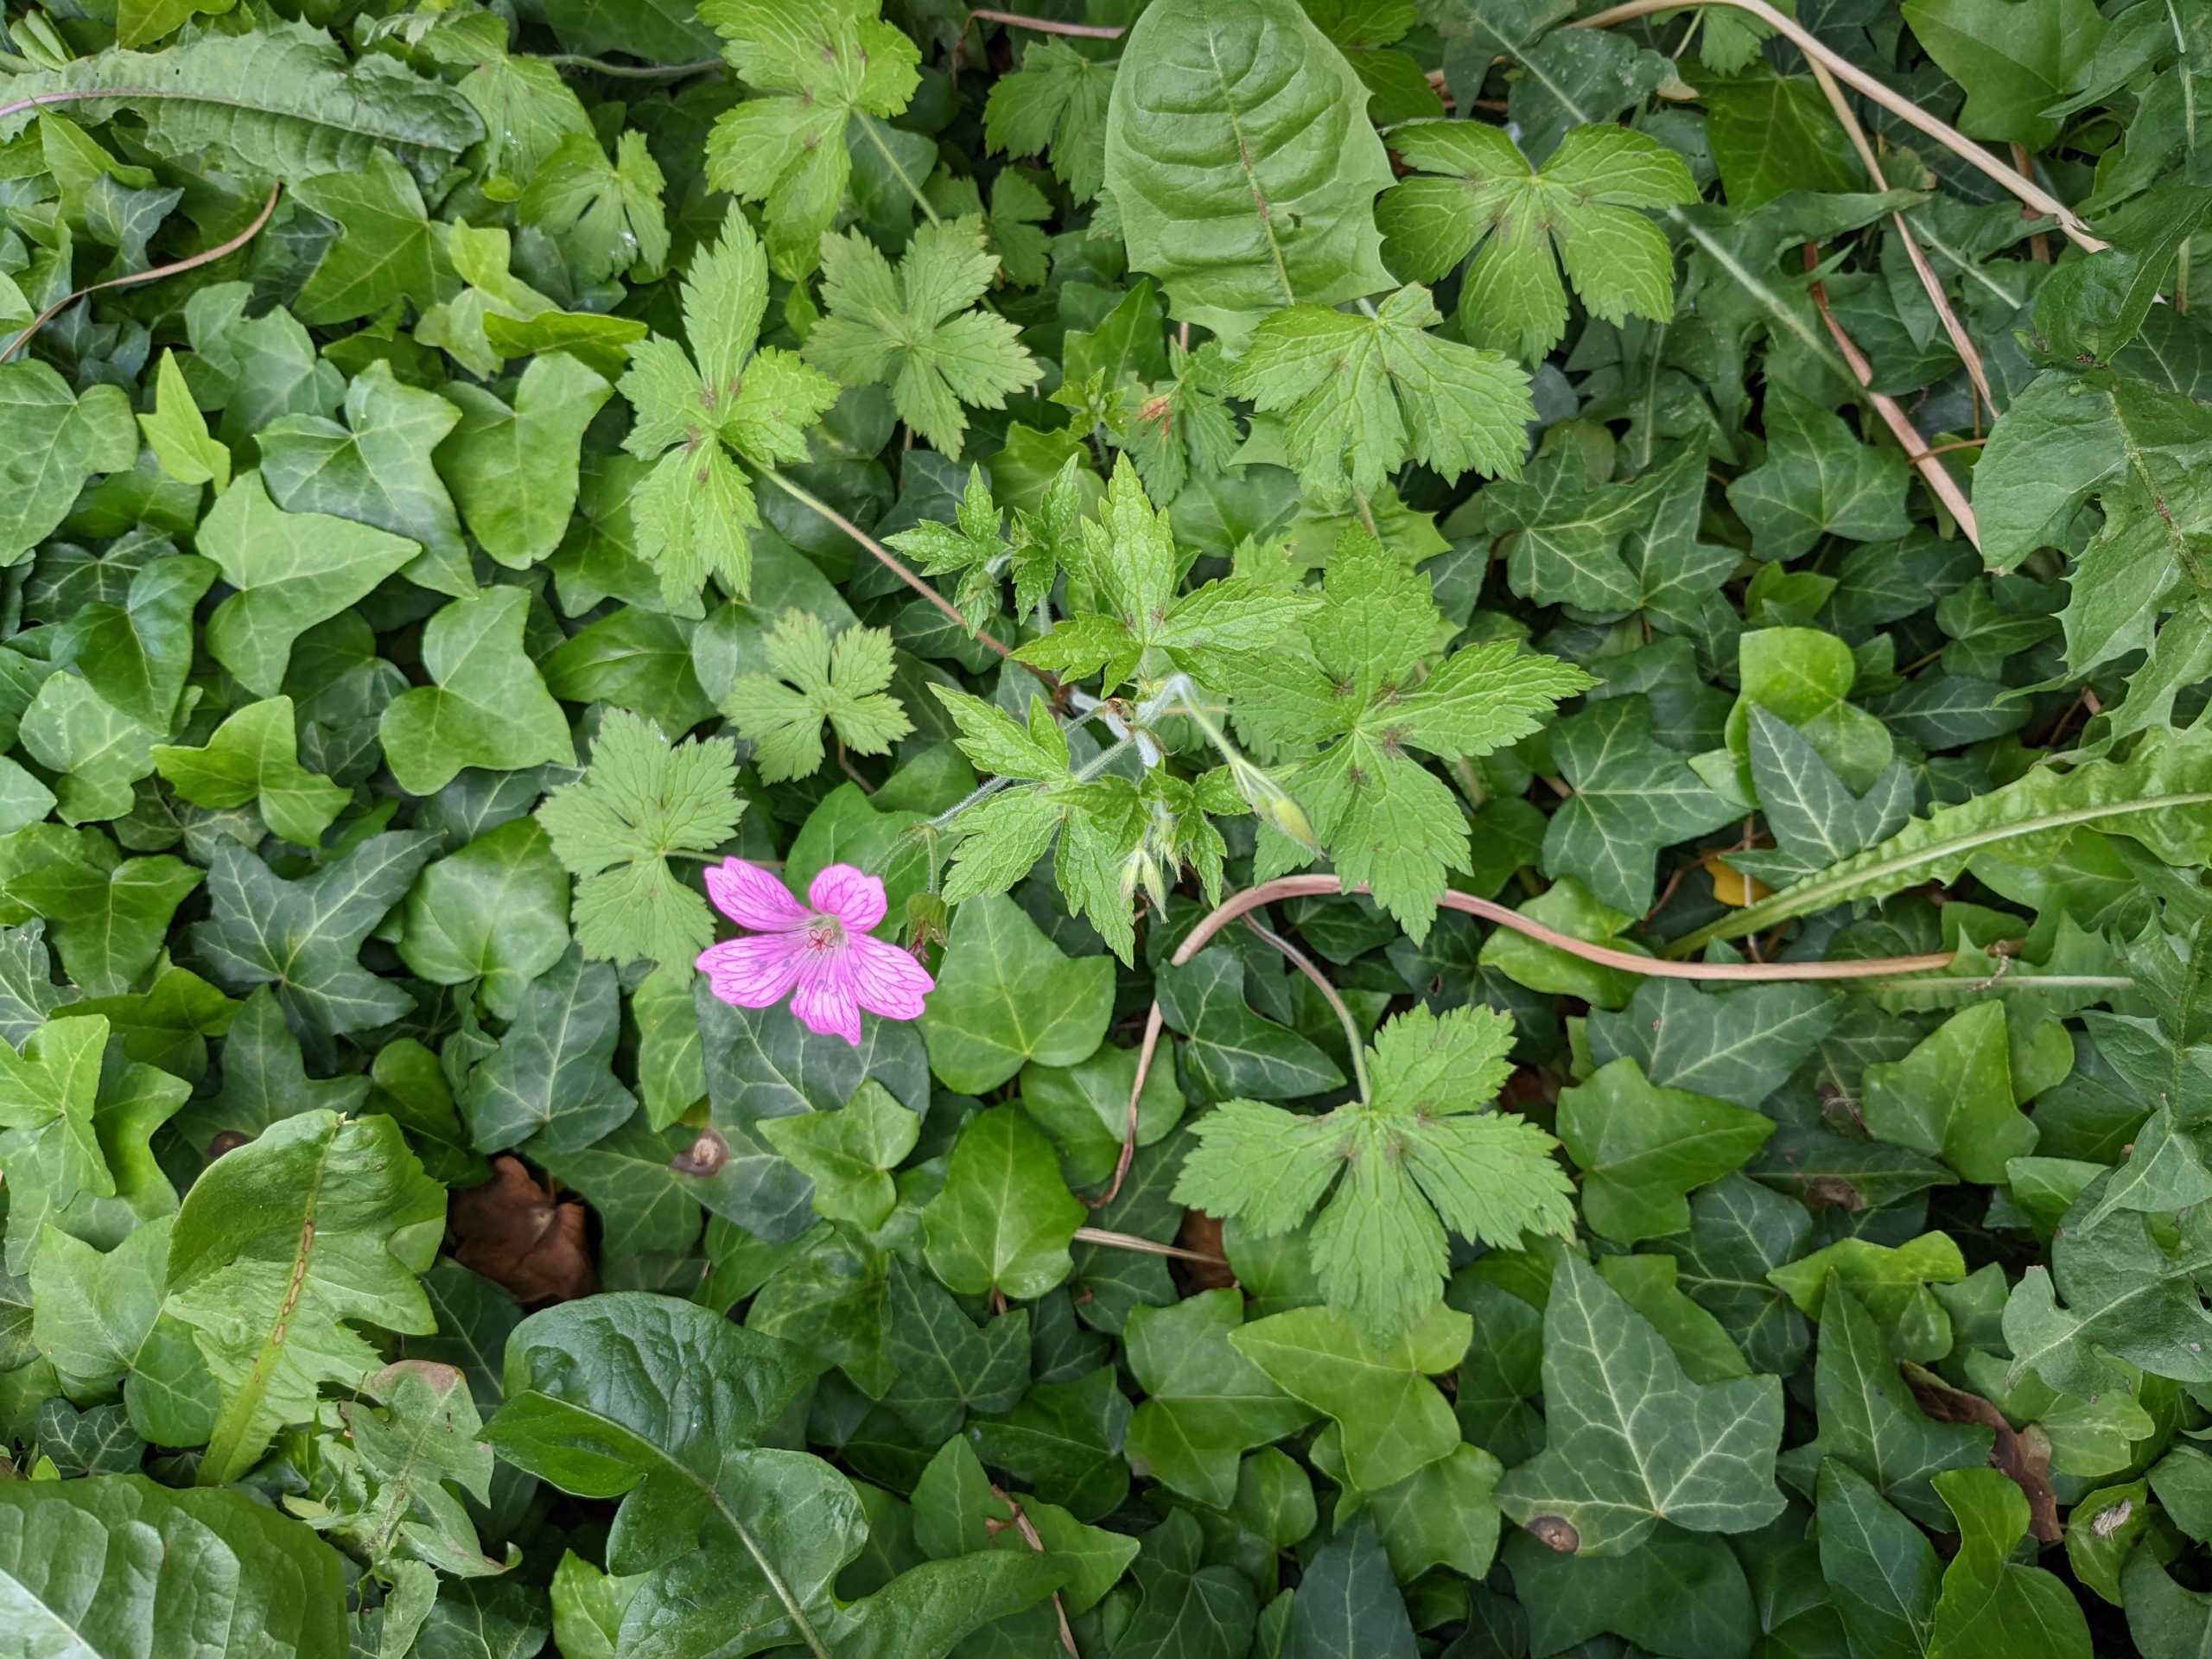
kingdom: Plantae
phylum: Tracheophyta
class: Magnoliopsida
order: Geraniales
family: Geraniaceae
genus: Geranium
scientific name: Geranium oxonianum
